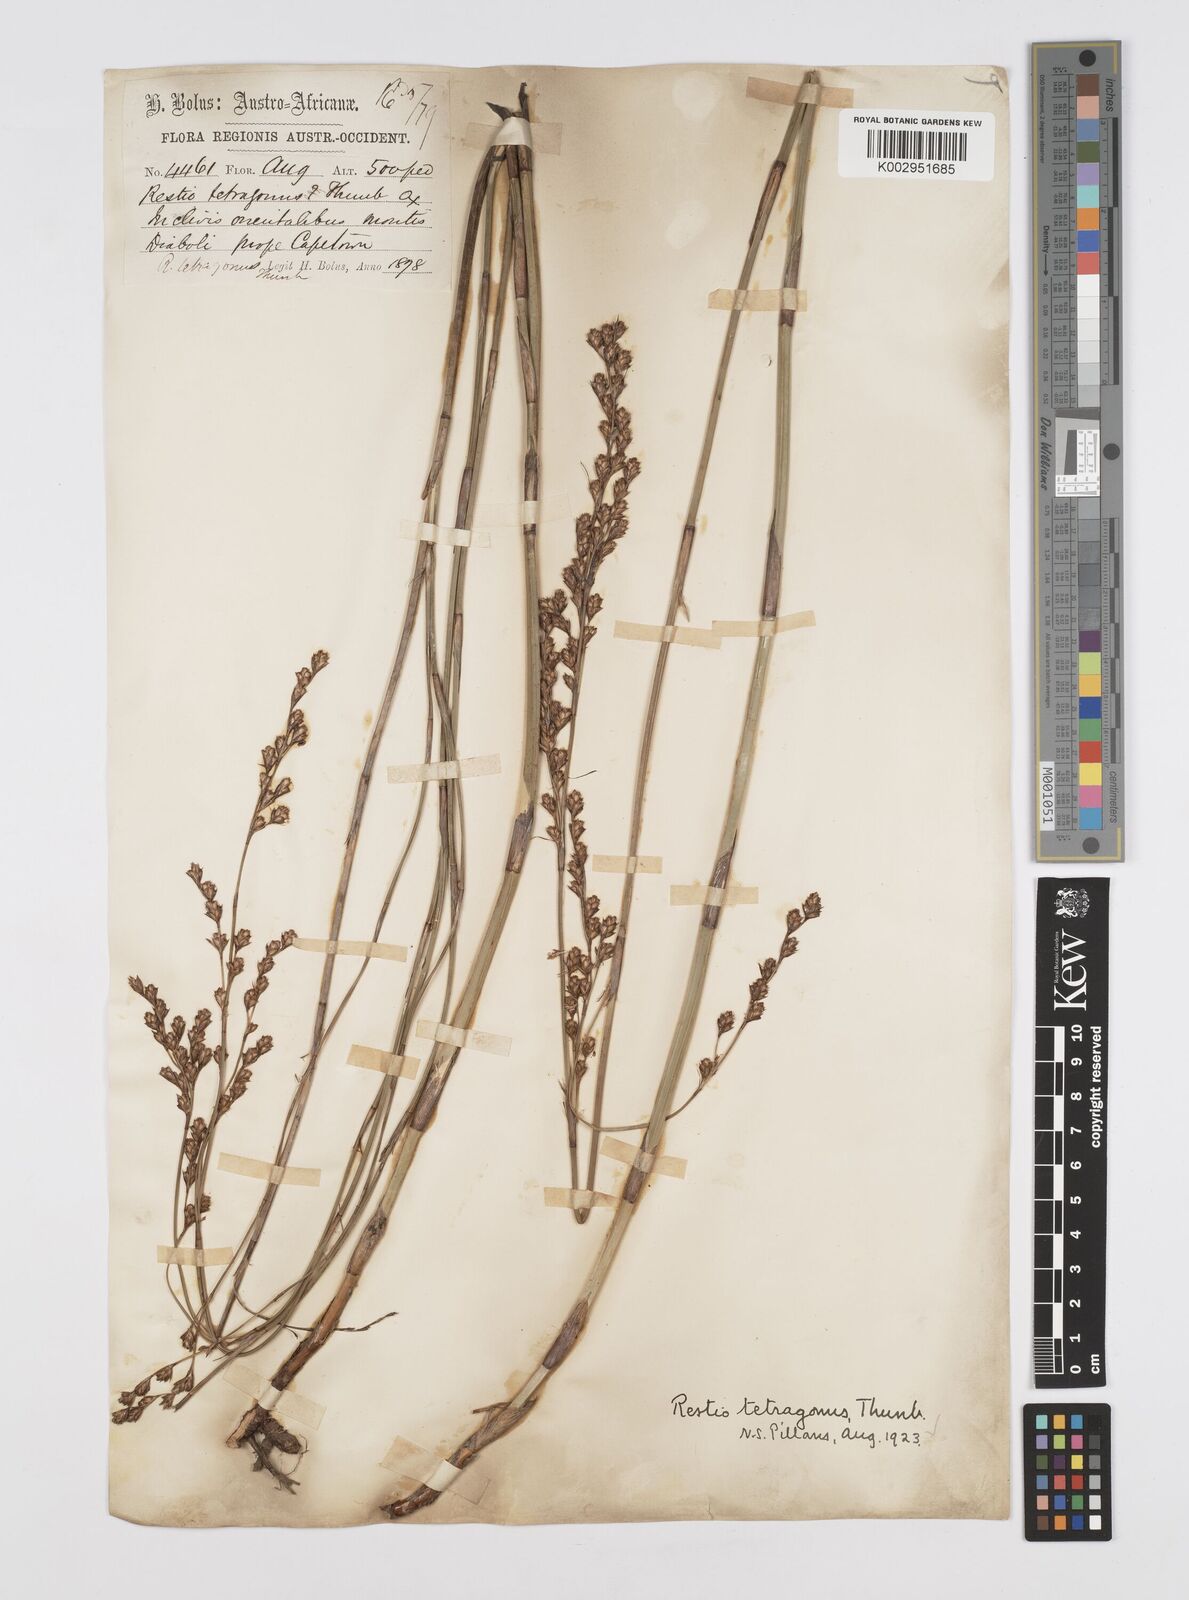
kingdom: Plantae
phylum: Tracheophyta
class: Liliopsida
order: Poales
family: Restionaceae
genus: Restio
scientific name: Restio tetragonus
